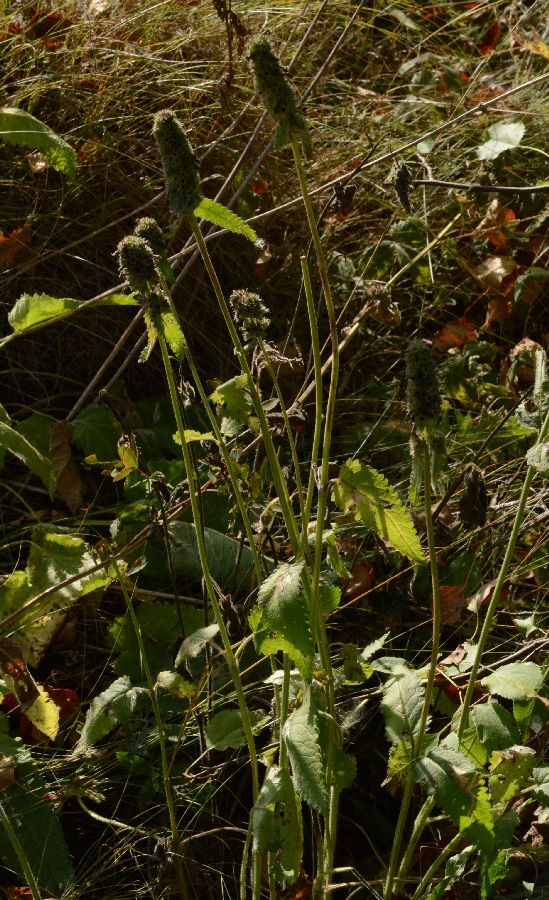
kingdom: Plantae
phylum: Tracheophyta
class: Magnoliopsida
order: Lamiales
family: Lamiaceae
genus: Stachys
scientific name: Stachys officinalis
